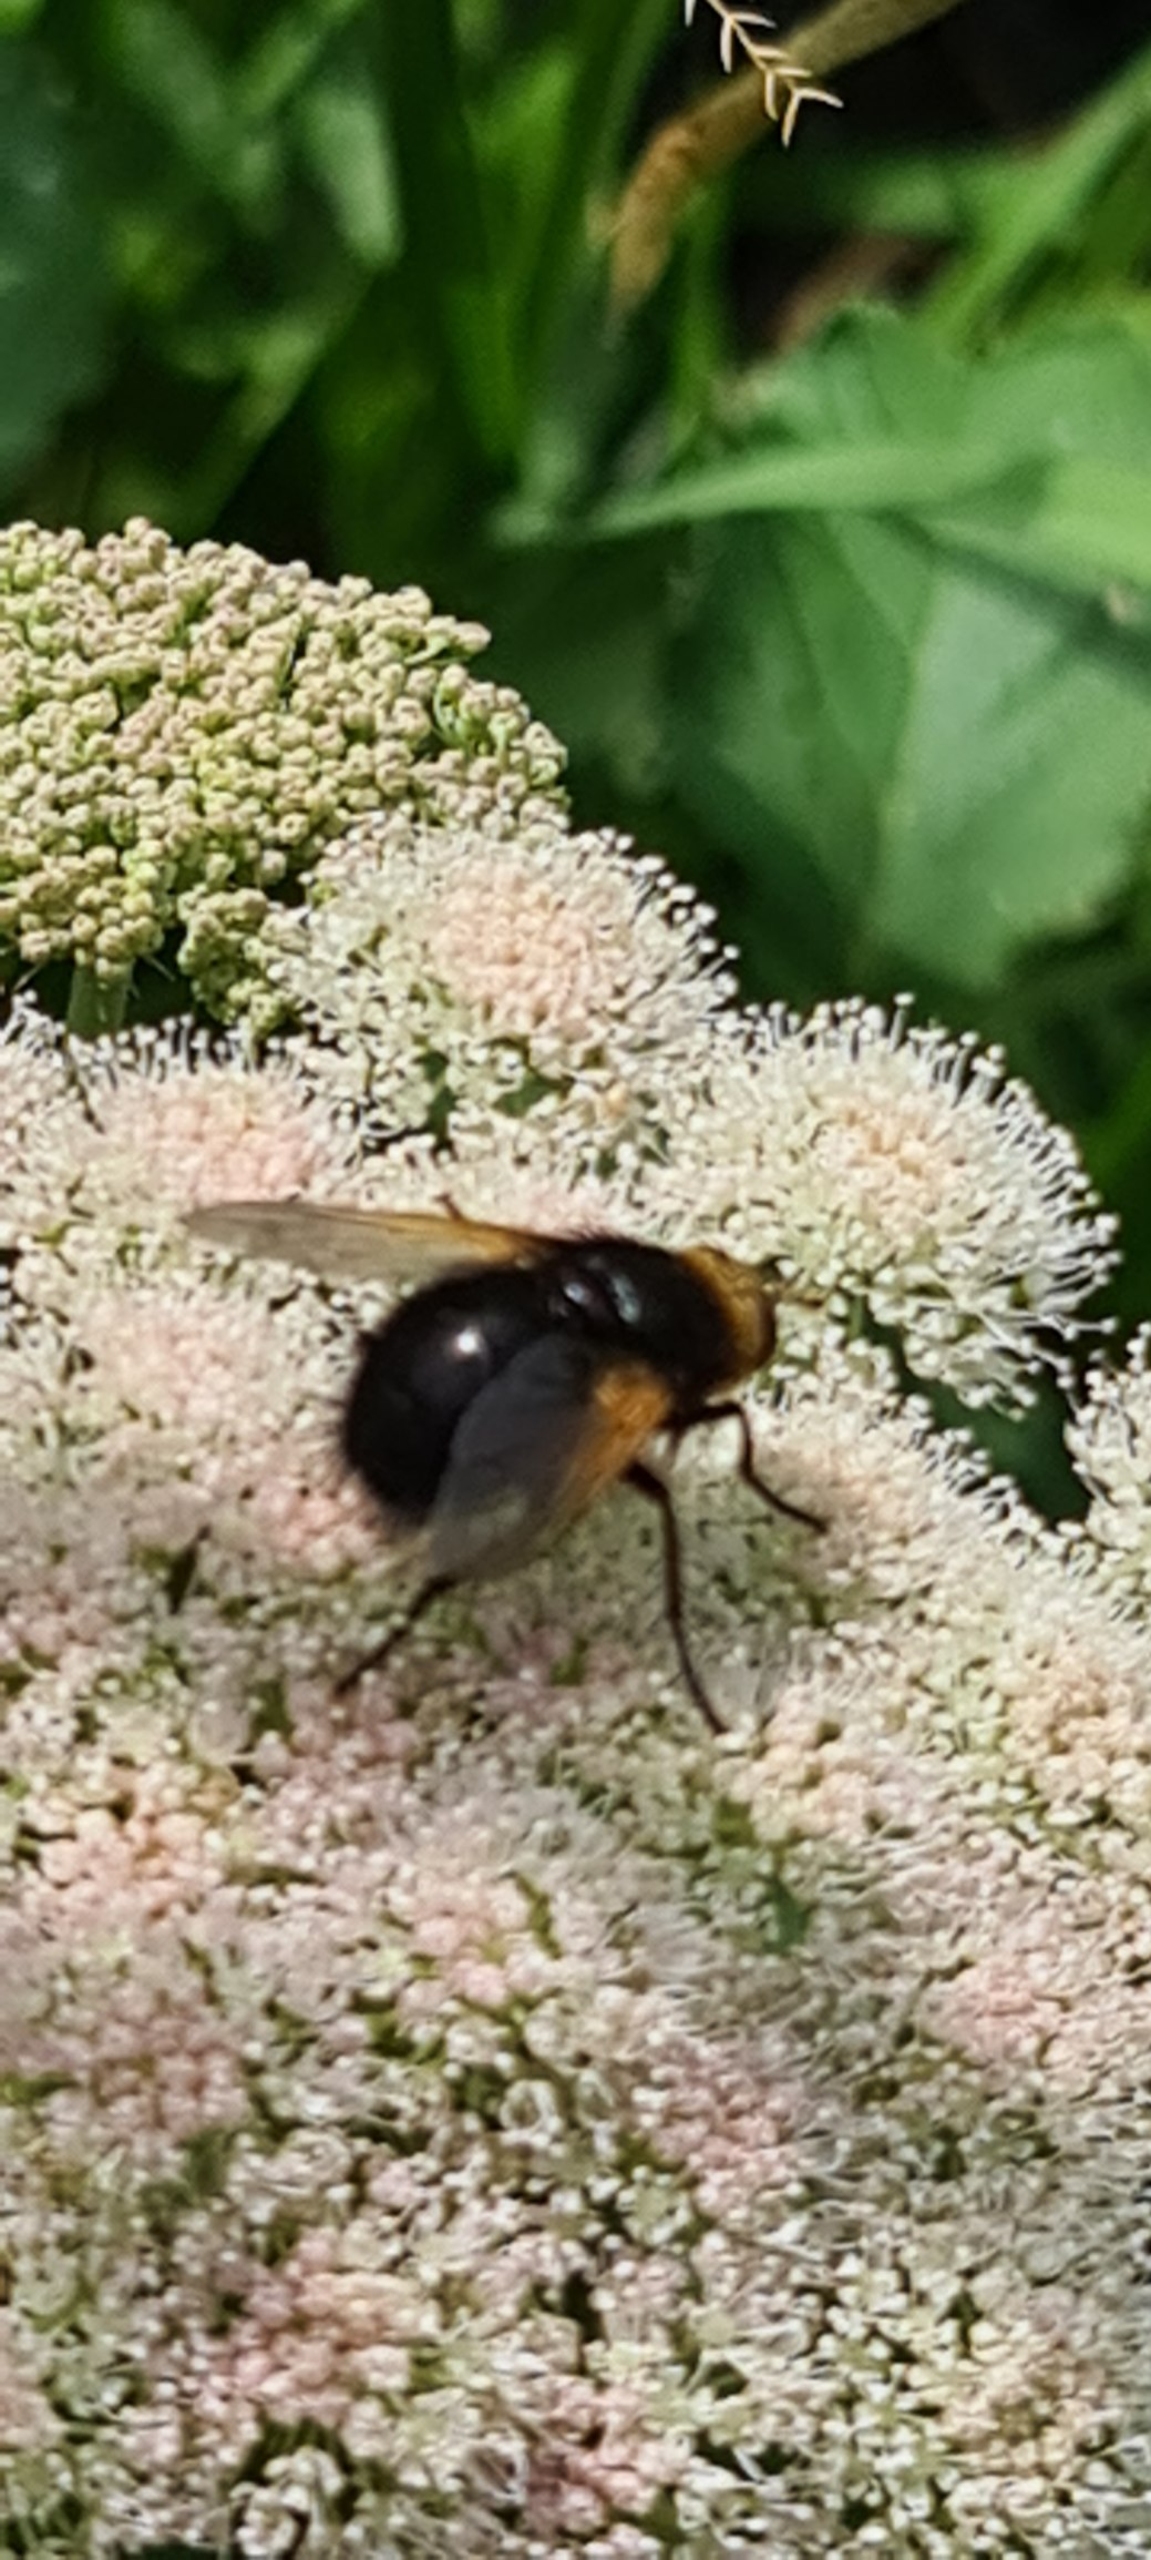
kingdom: Animalia
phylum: Arthropoda
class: Insecta
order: Diptera
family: Tachinidae
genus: Tachina
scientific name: Tachina grossa
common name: Kæmpefluen Harald
